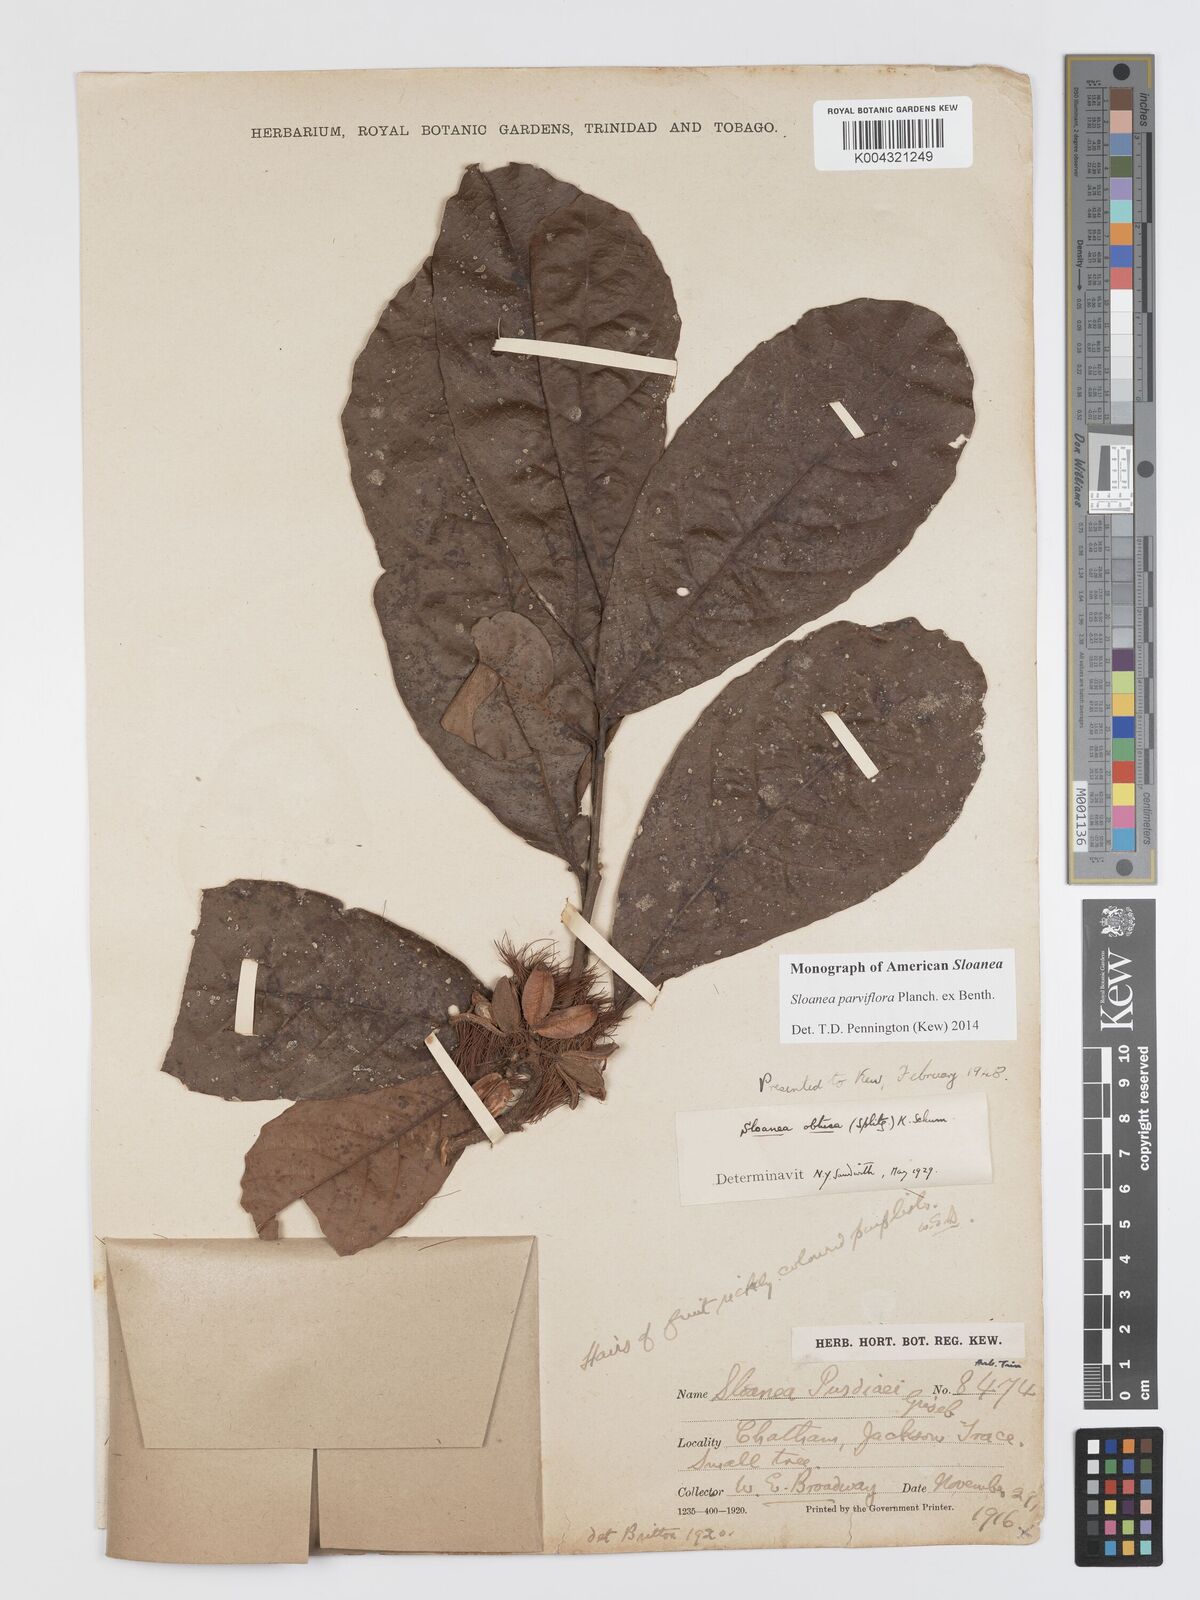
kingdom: Plantae
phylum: Tracheophyta
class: Magnoliopsida
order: Oxalidales
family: Elaeocarpaceae
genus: Sloanea
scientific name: Sloanea kappleriana
